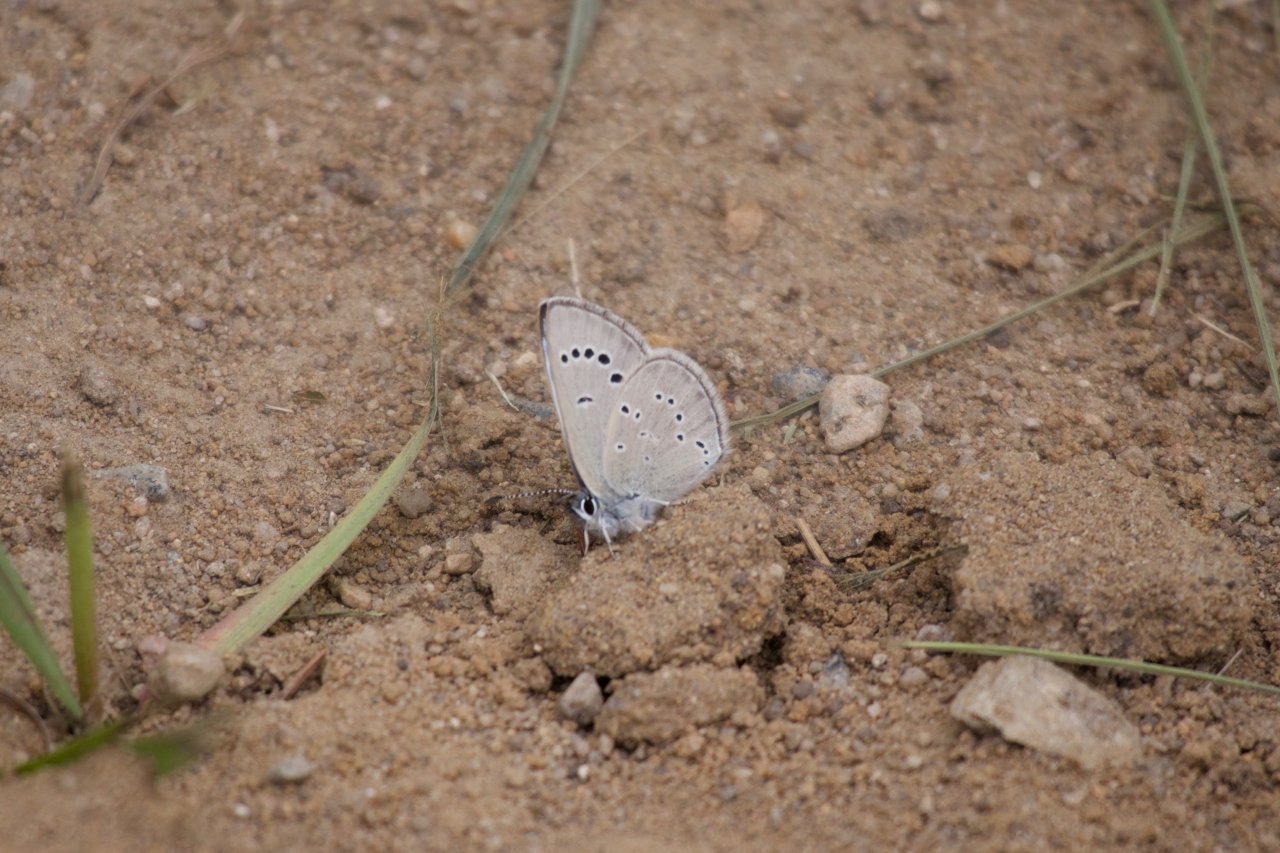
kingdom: Animalia
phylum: Arthropoda
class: Insecta
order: Lepidoptera
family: Lycaenidae
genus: Glaucopsyche
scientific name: Glaucopsyche lygdamus
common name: Silvery Blue
